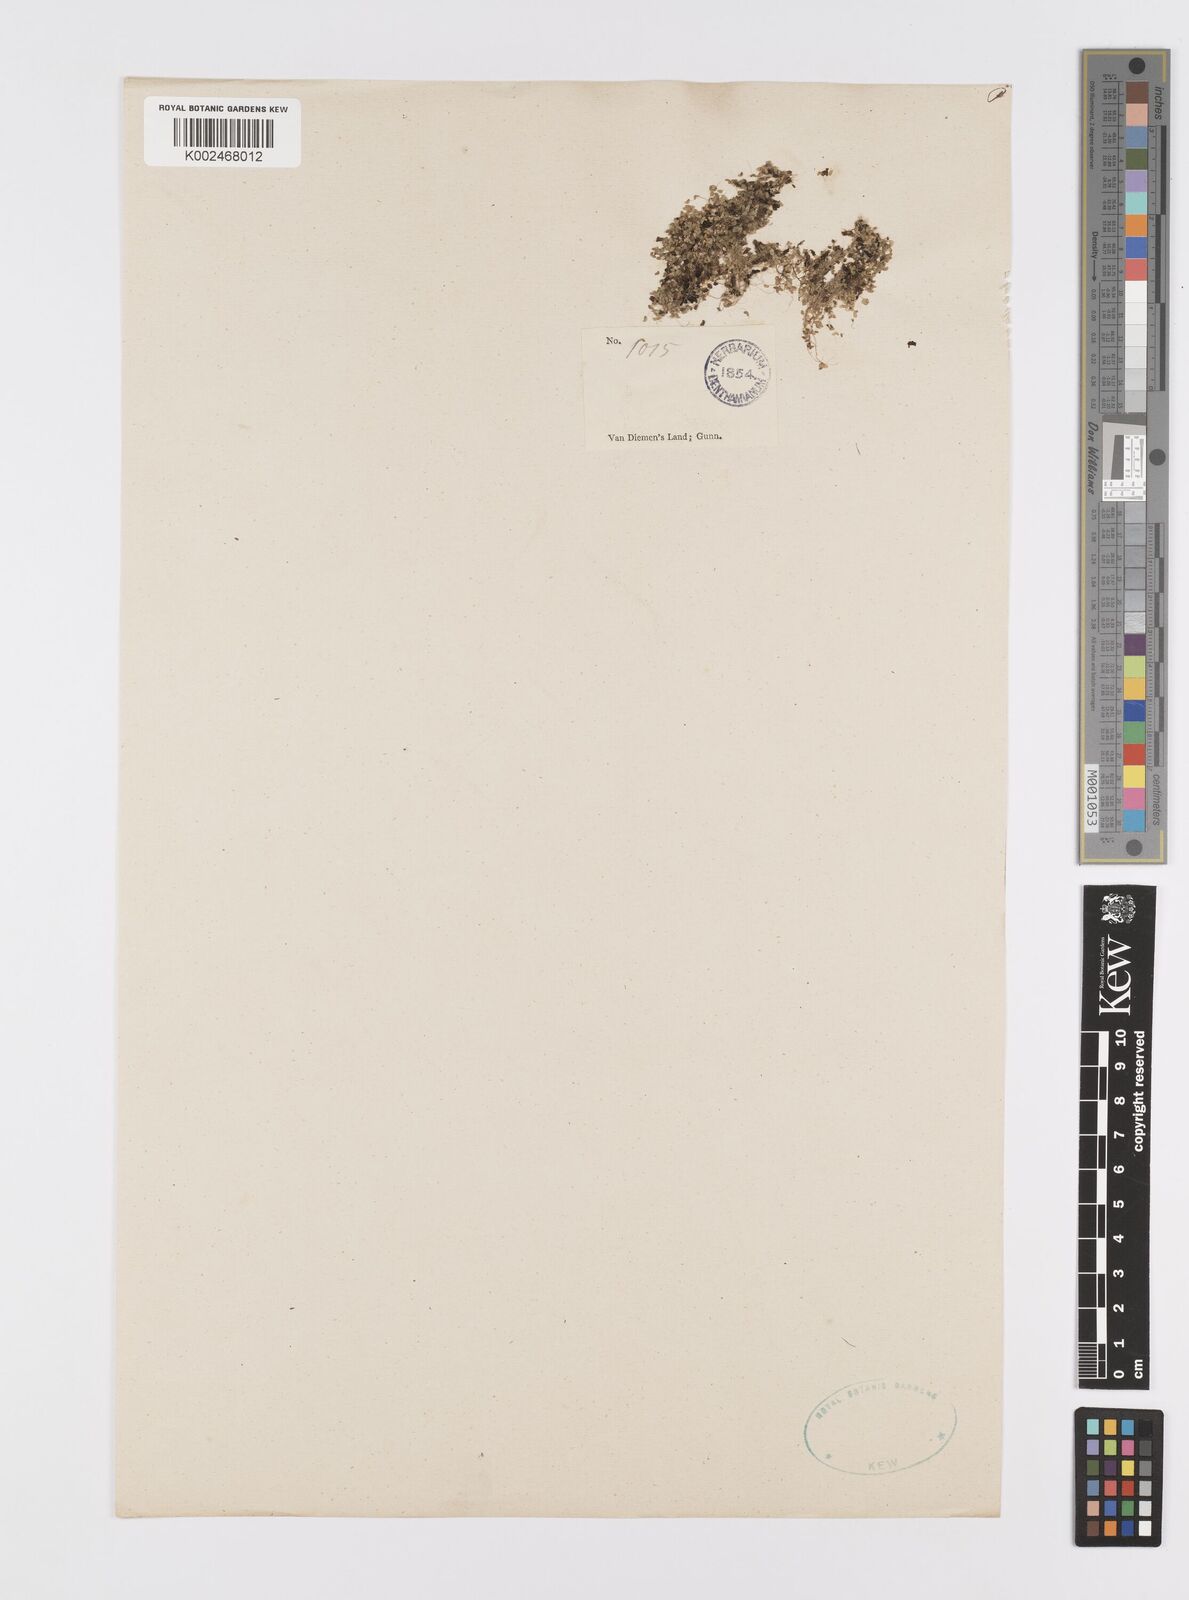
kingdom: Plantae
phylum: Tracheophyta
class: Liliopsida
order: Alismatales
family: Araceae
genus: Lemna
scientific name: Lemna
